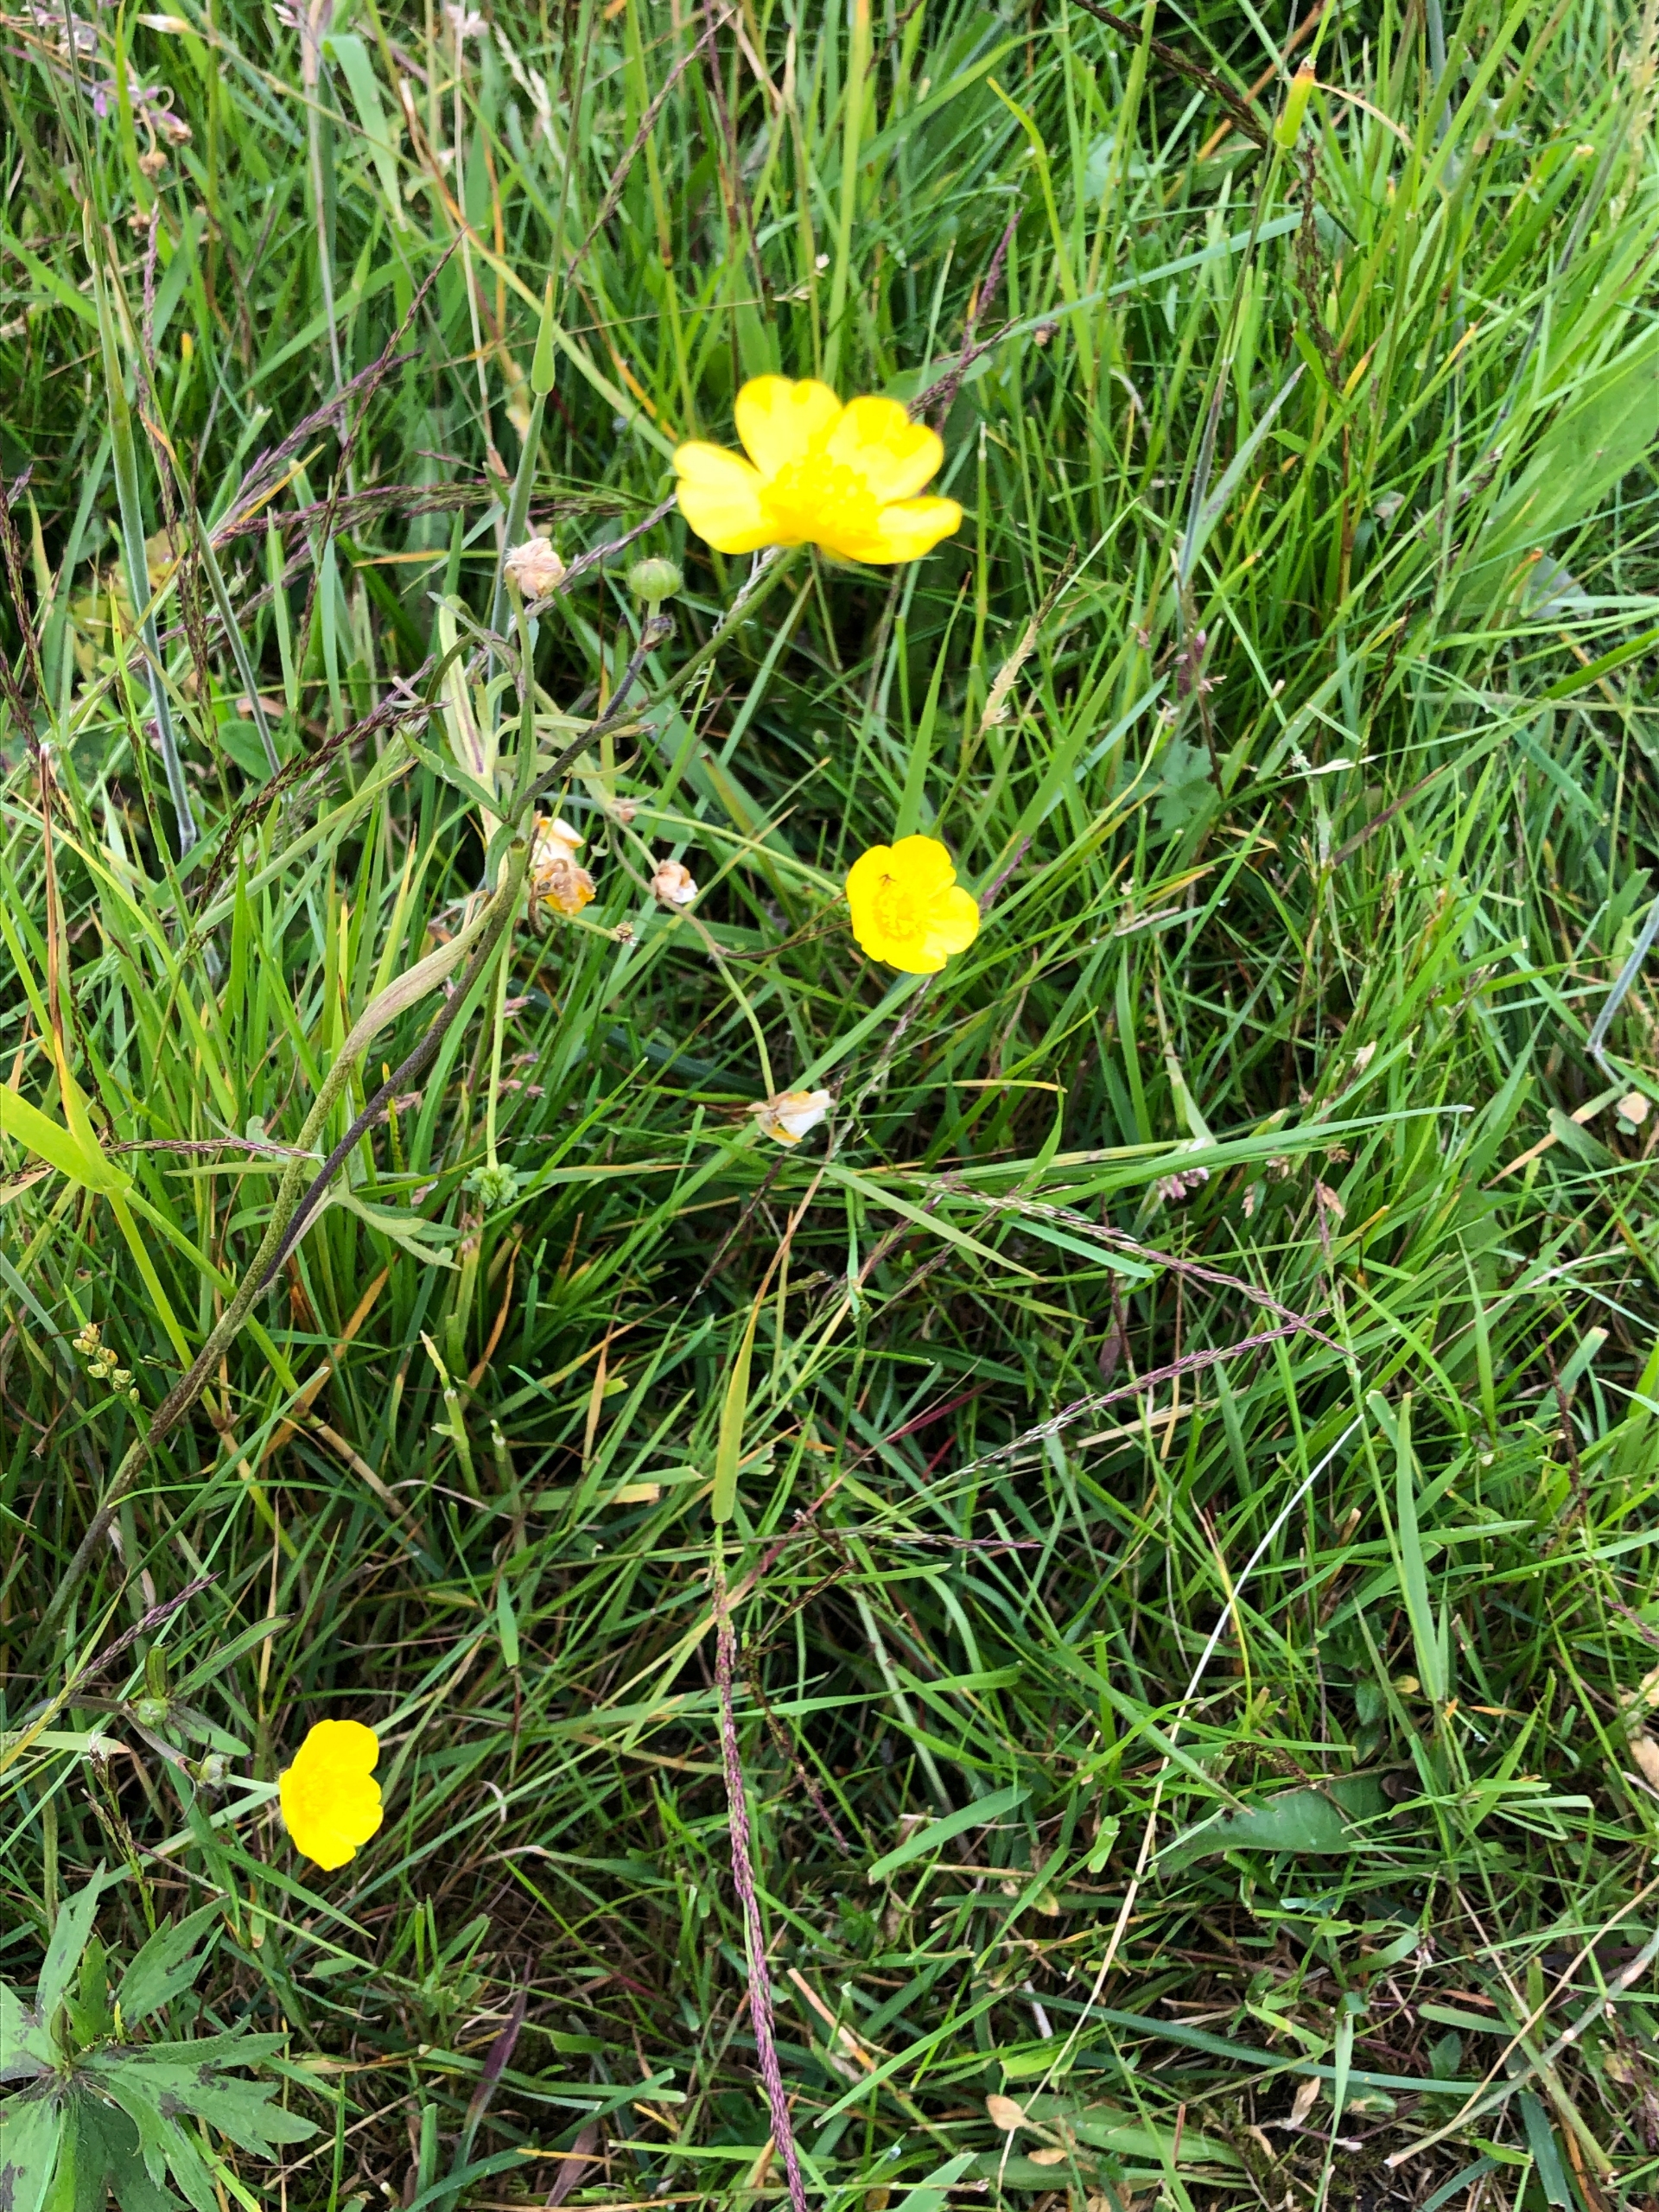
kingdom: Plantae
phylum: Tracheophyta
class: Magnoliopsida
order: Ranunculales
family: Ranunculaceae
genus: Ranunculus
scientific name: Ranunculus acris
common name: Bidende ranunkel
